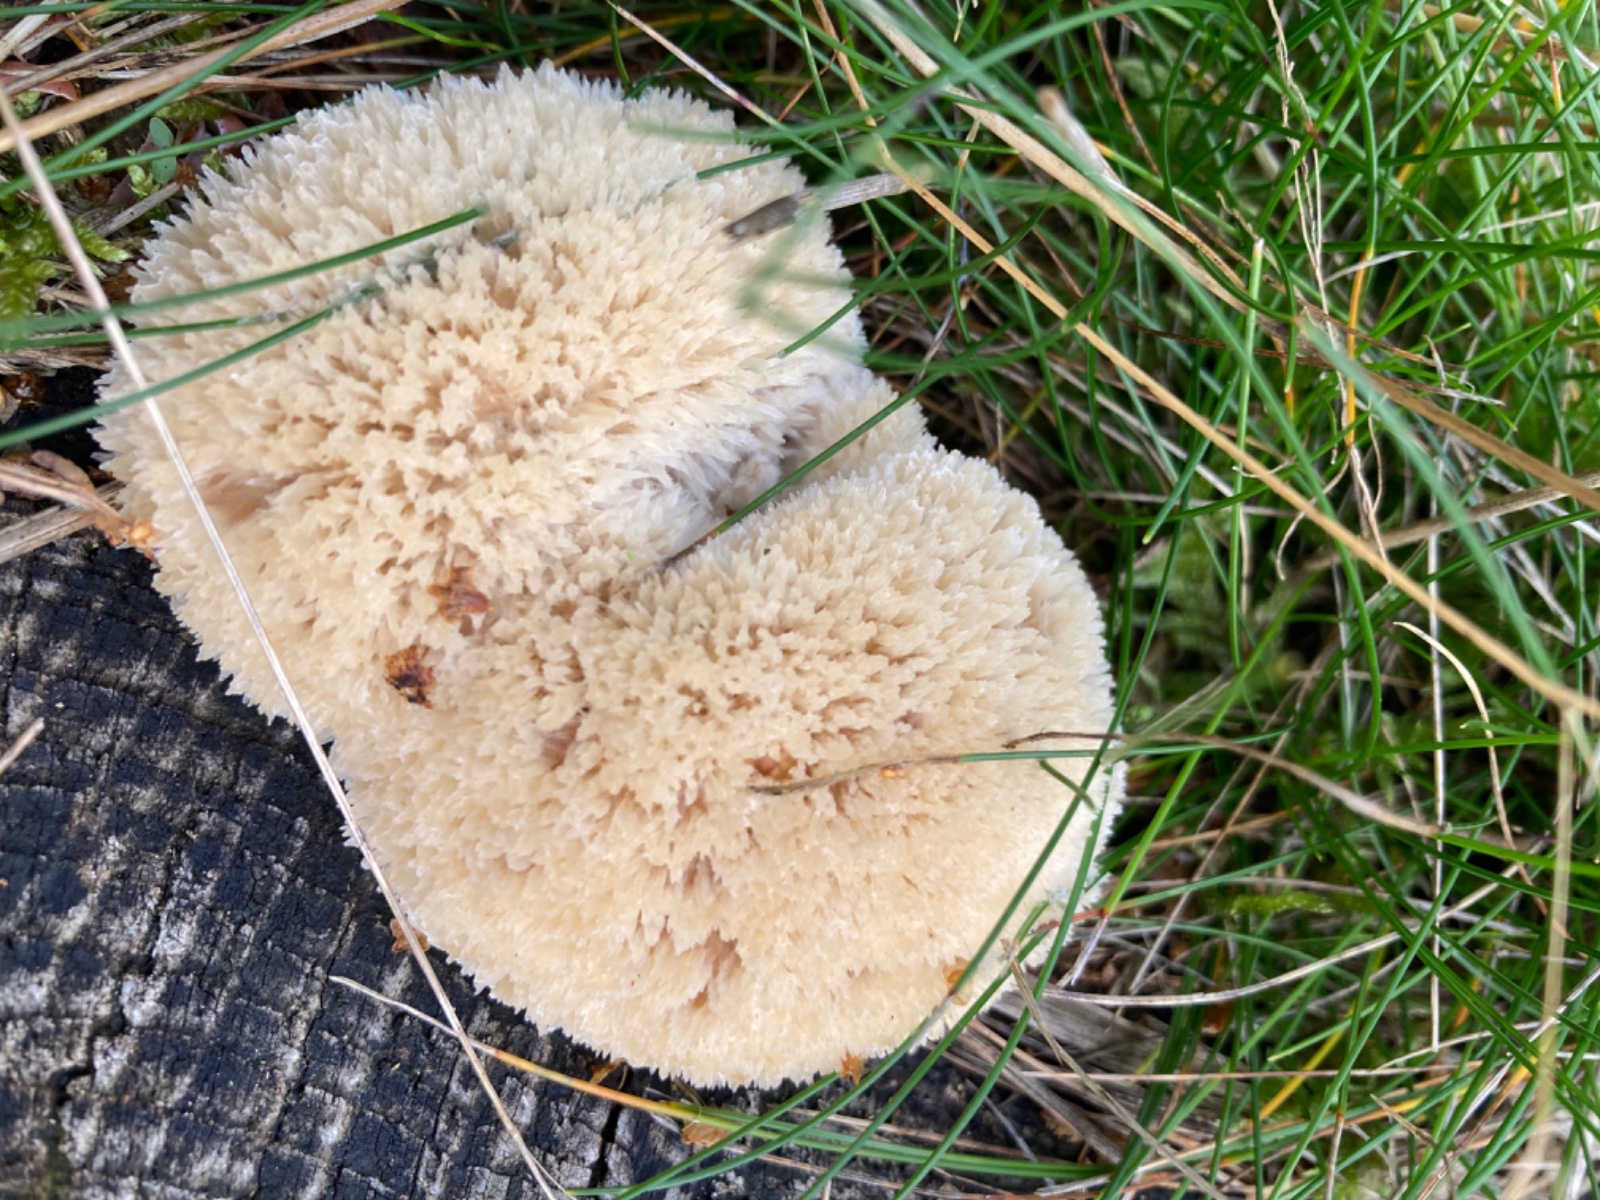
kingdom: Fungi
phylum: Basidiomycota
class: Agaricomycetes
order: Polyporales
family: Dacryobolaceae
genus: Postia
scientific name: Postia ptychogaster
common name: støvende kødporesvamp
